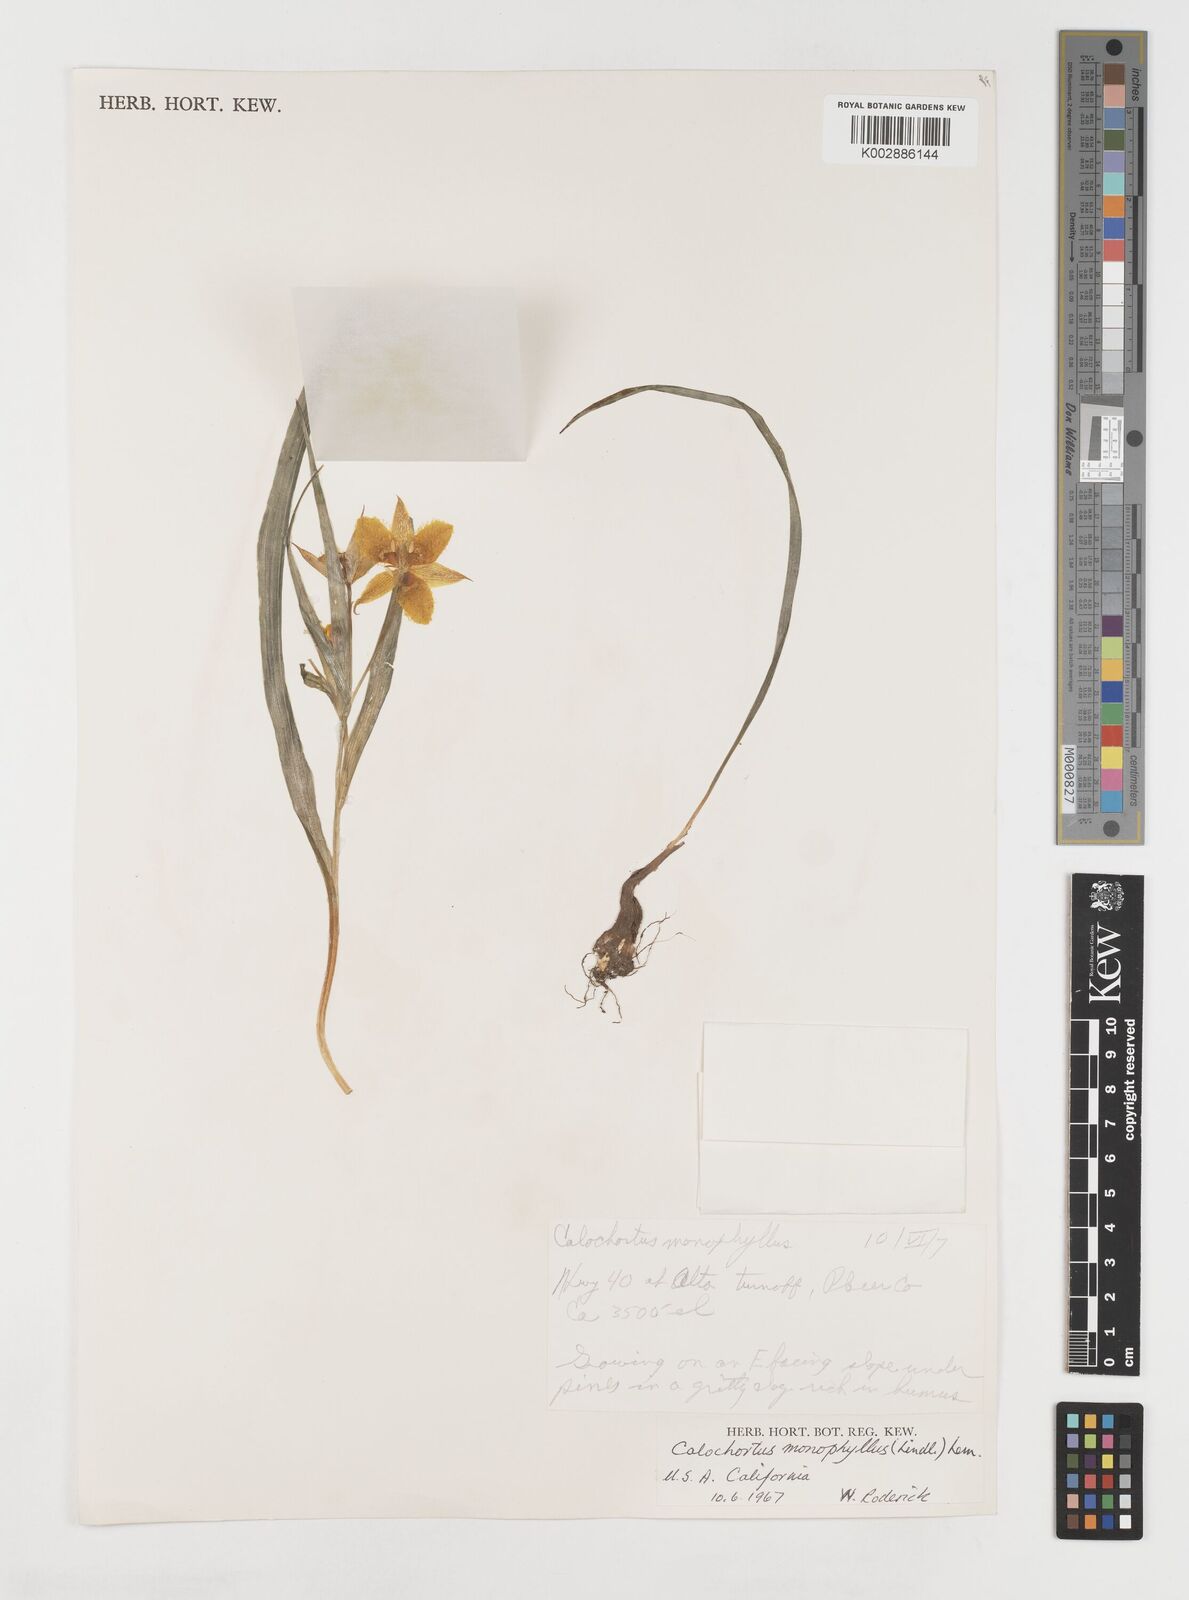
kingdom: Plantae
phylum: Tracheophyta
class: Liliopsida
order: Liliales
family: Liliaceae
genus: Calochortus
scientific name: Calochortus monophyllus
